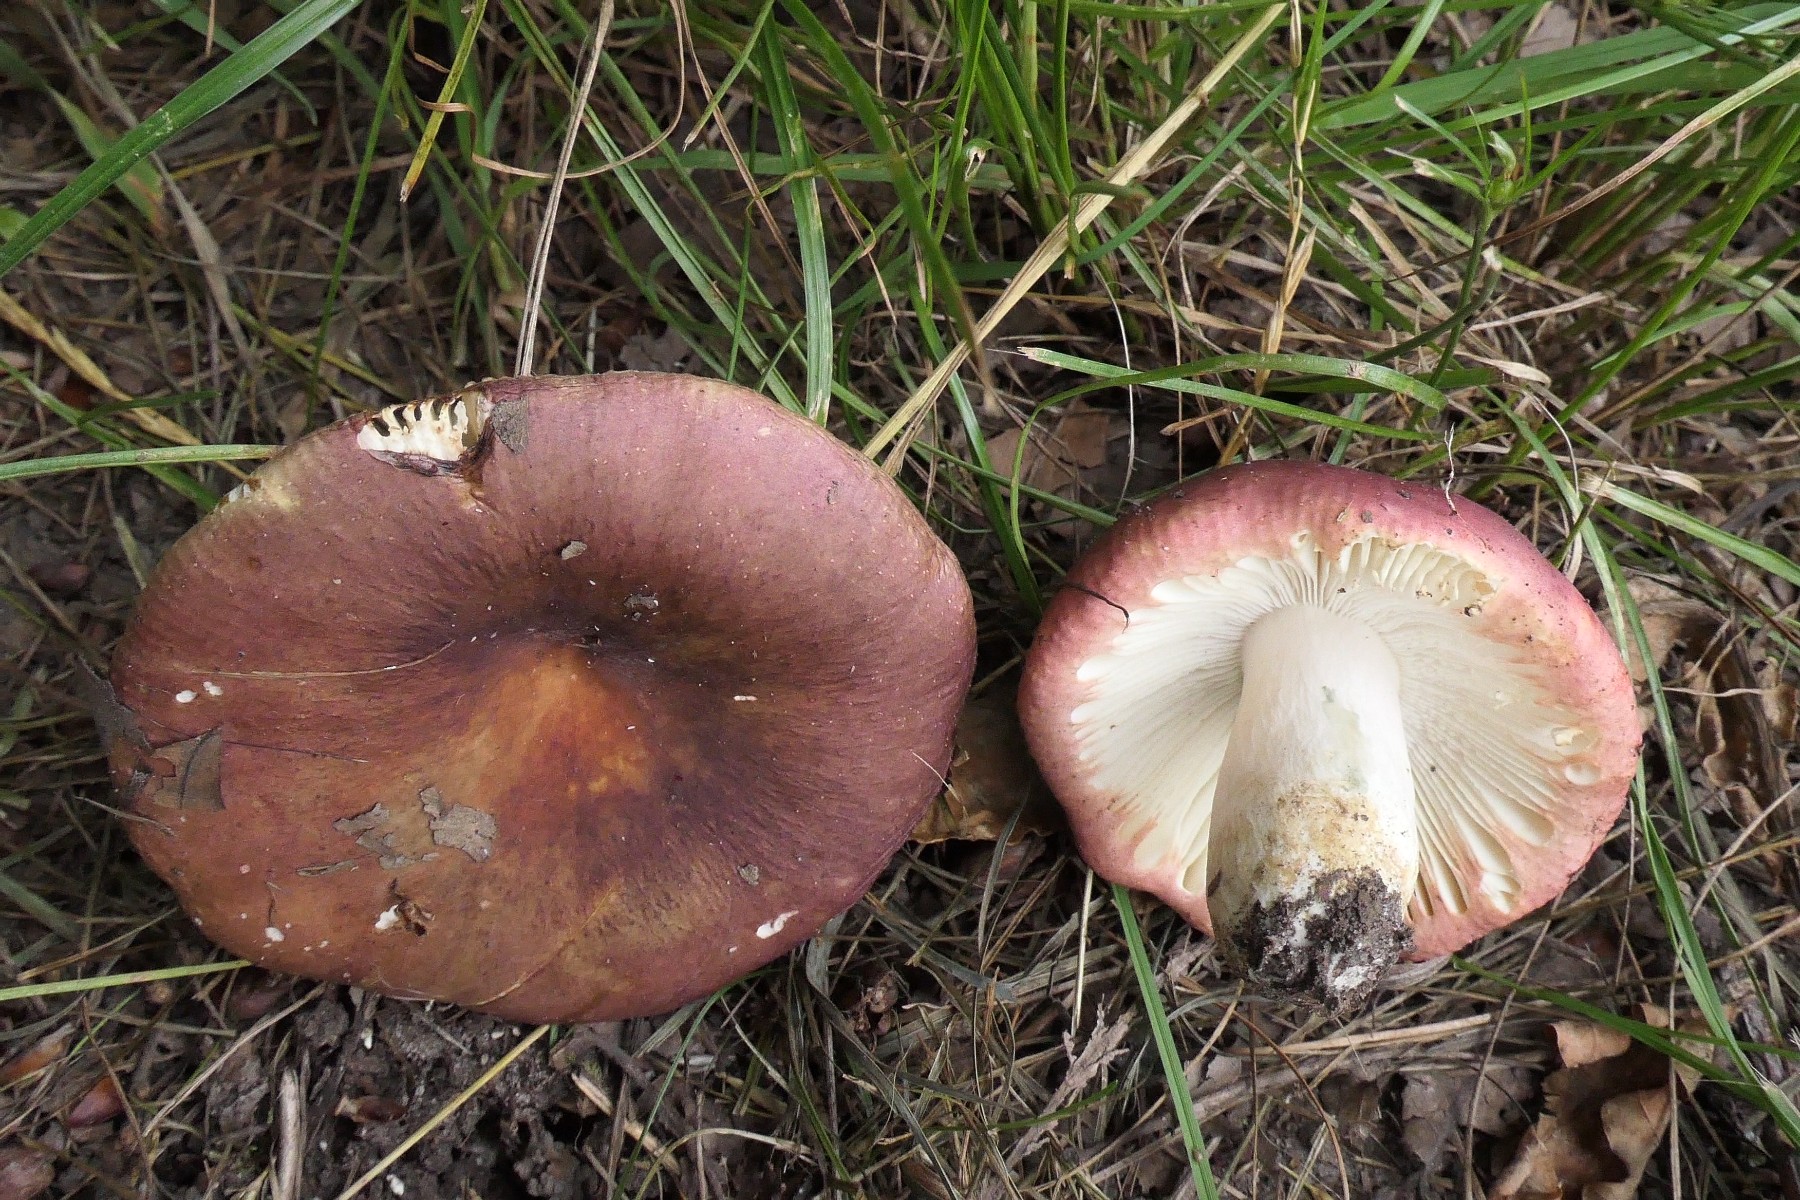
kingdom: Fungi
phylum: Basidiomycota
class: Agaricomycetes
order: Russulales
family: Russulaceae
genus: Russula
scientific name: Russula graveolens
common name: bugtet skørhat
